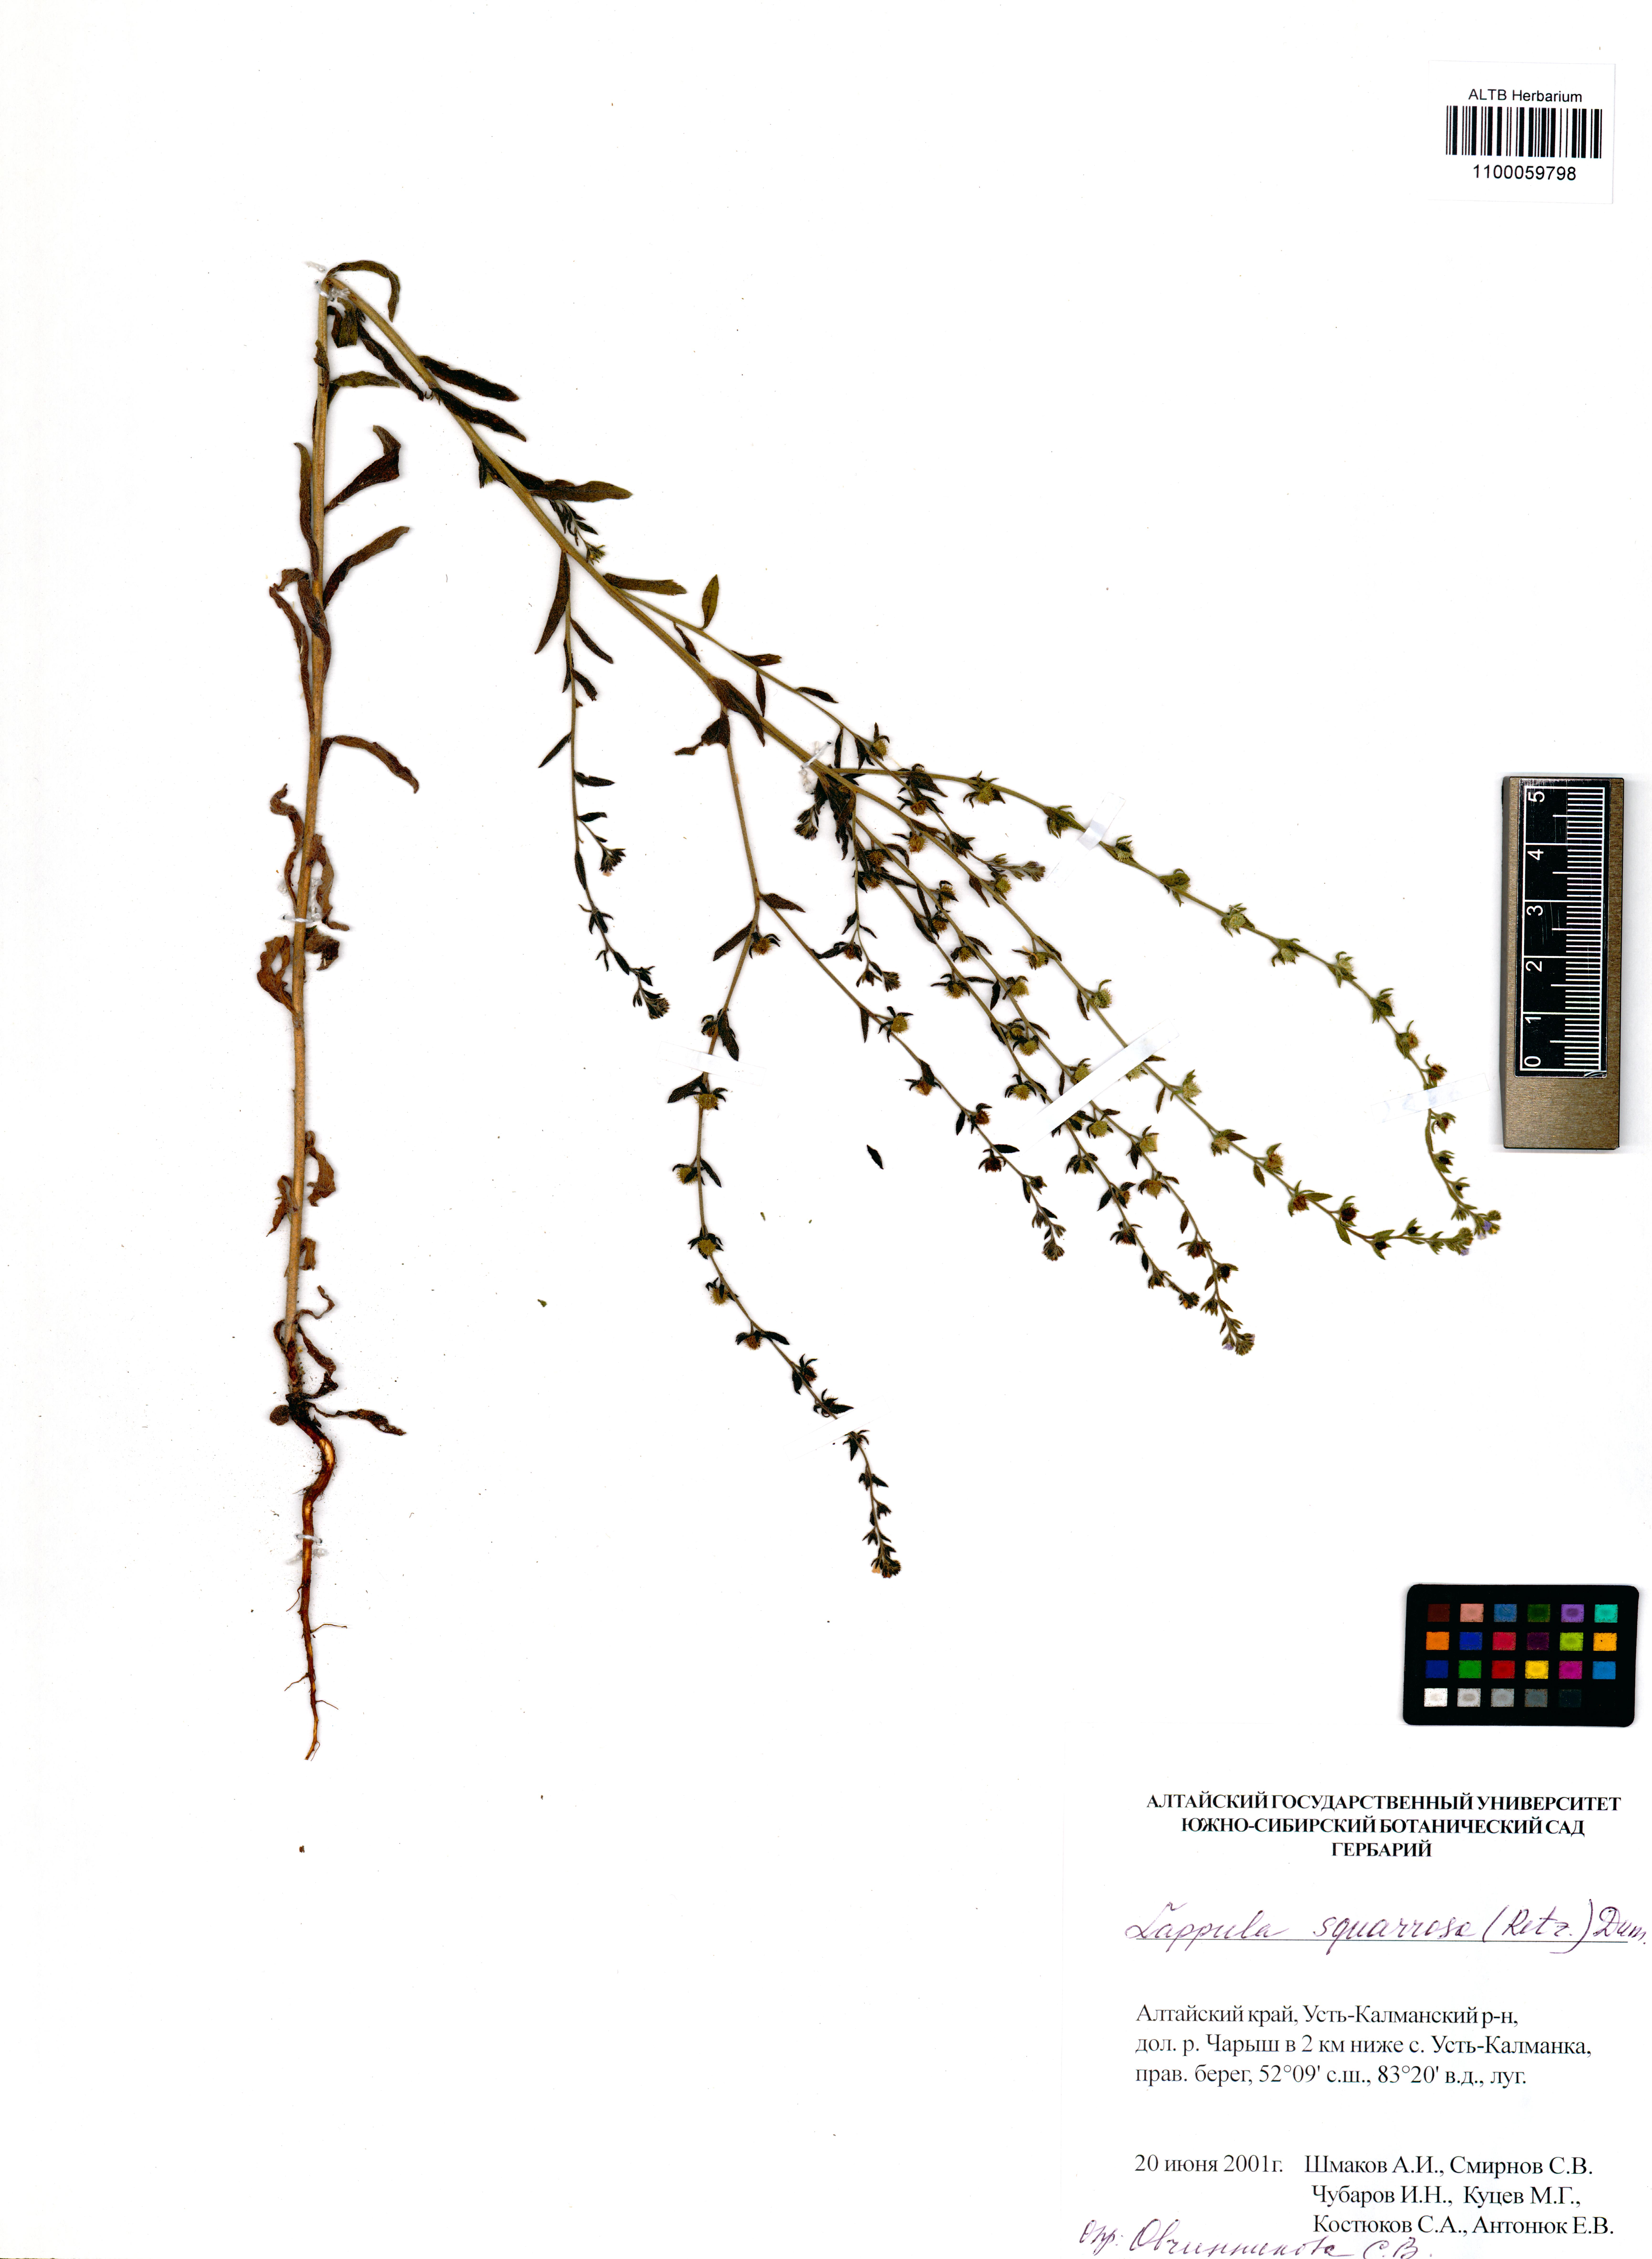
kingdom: Plantae
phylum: Tracheophyta
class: Magnoliopsida
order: Boraginales
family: Boraginaceae
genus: Lappula
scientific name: Lappula squarrosa
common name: European stickseed
